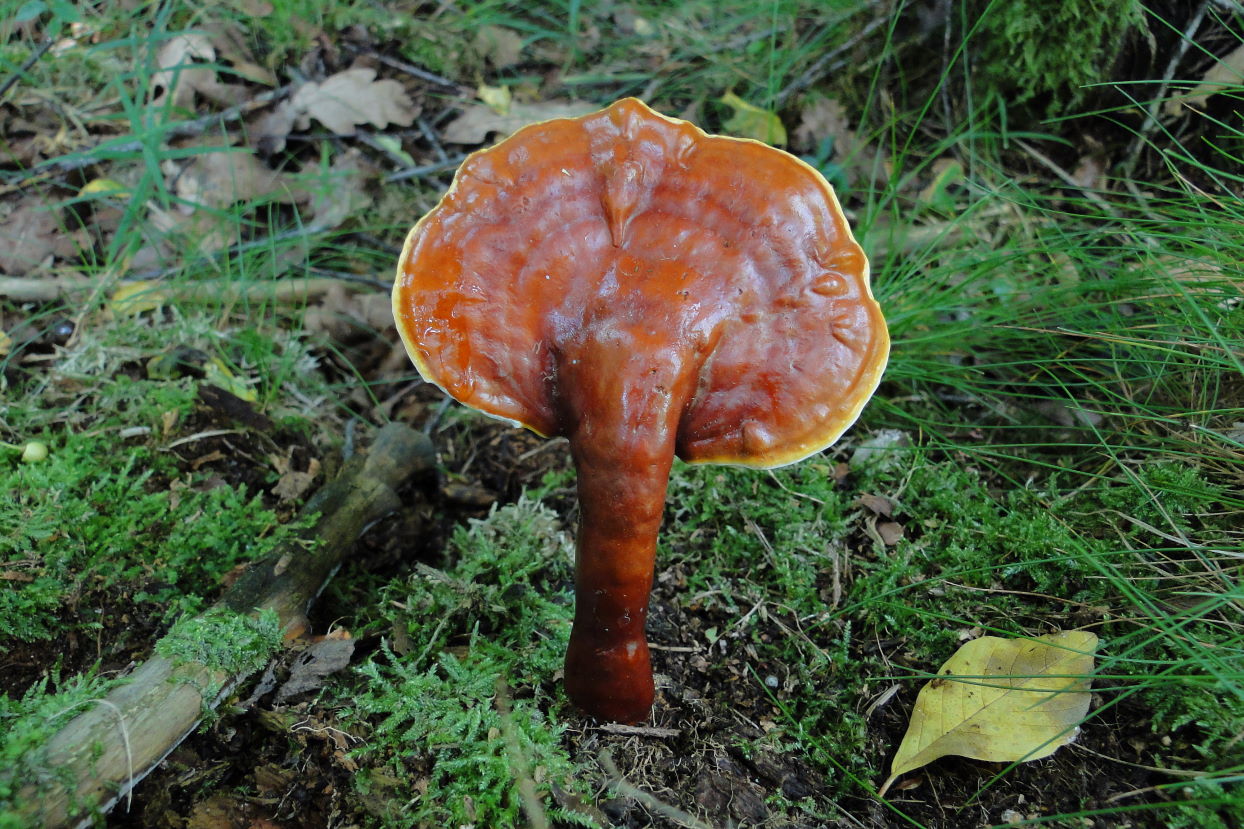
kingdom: Fungi
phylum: Basidiomycota
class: Agaricomycetes
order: Polyporales
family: Polyporaceae
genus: Ganoderma
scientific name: Ganoderma lucidum
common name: skinnende lakporesvamp
